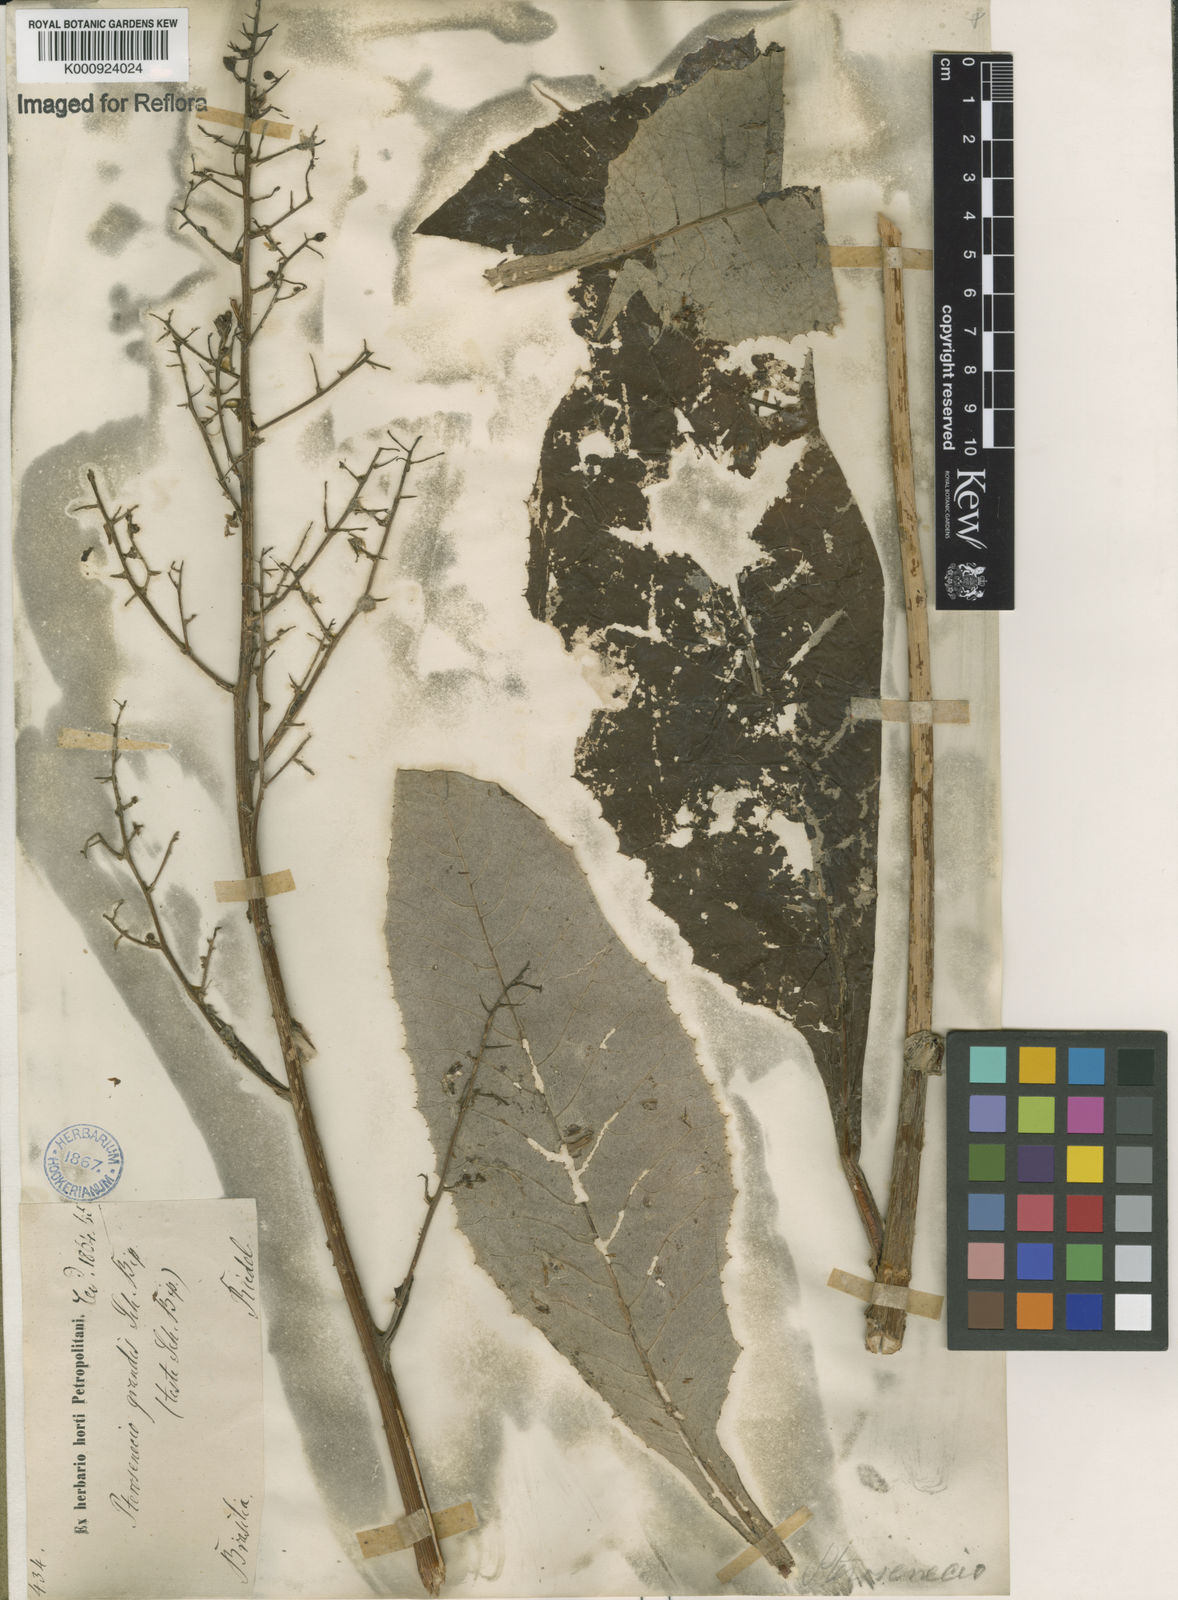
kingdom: Plantae
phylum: Tracheophyta
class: Magnoliopsida
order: Asterales
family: Asteraceae
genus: Senecio
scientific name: Senecio grandis
